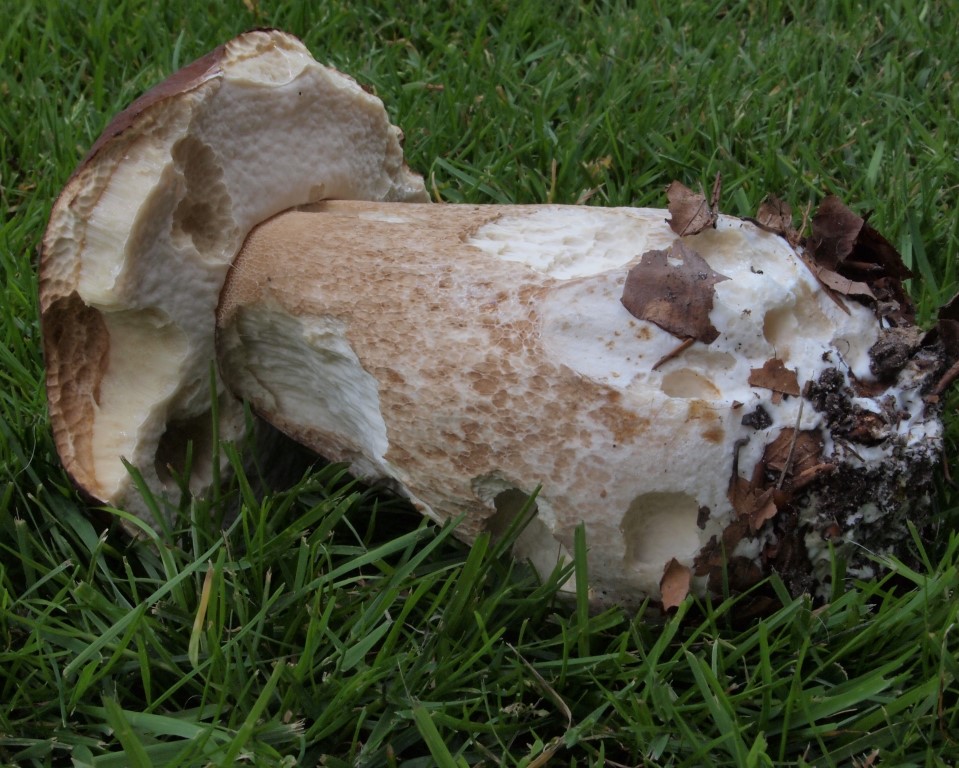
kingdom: Fungi
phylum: Basidiomycota
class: Agaricomycetes
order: Boletales
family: Boletaceae
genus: Boletus
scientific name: Boletus edulis
